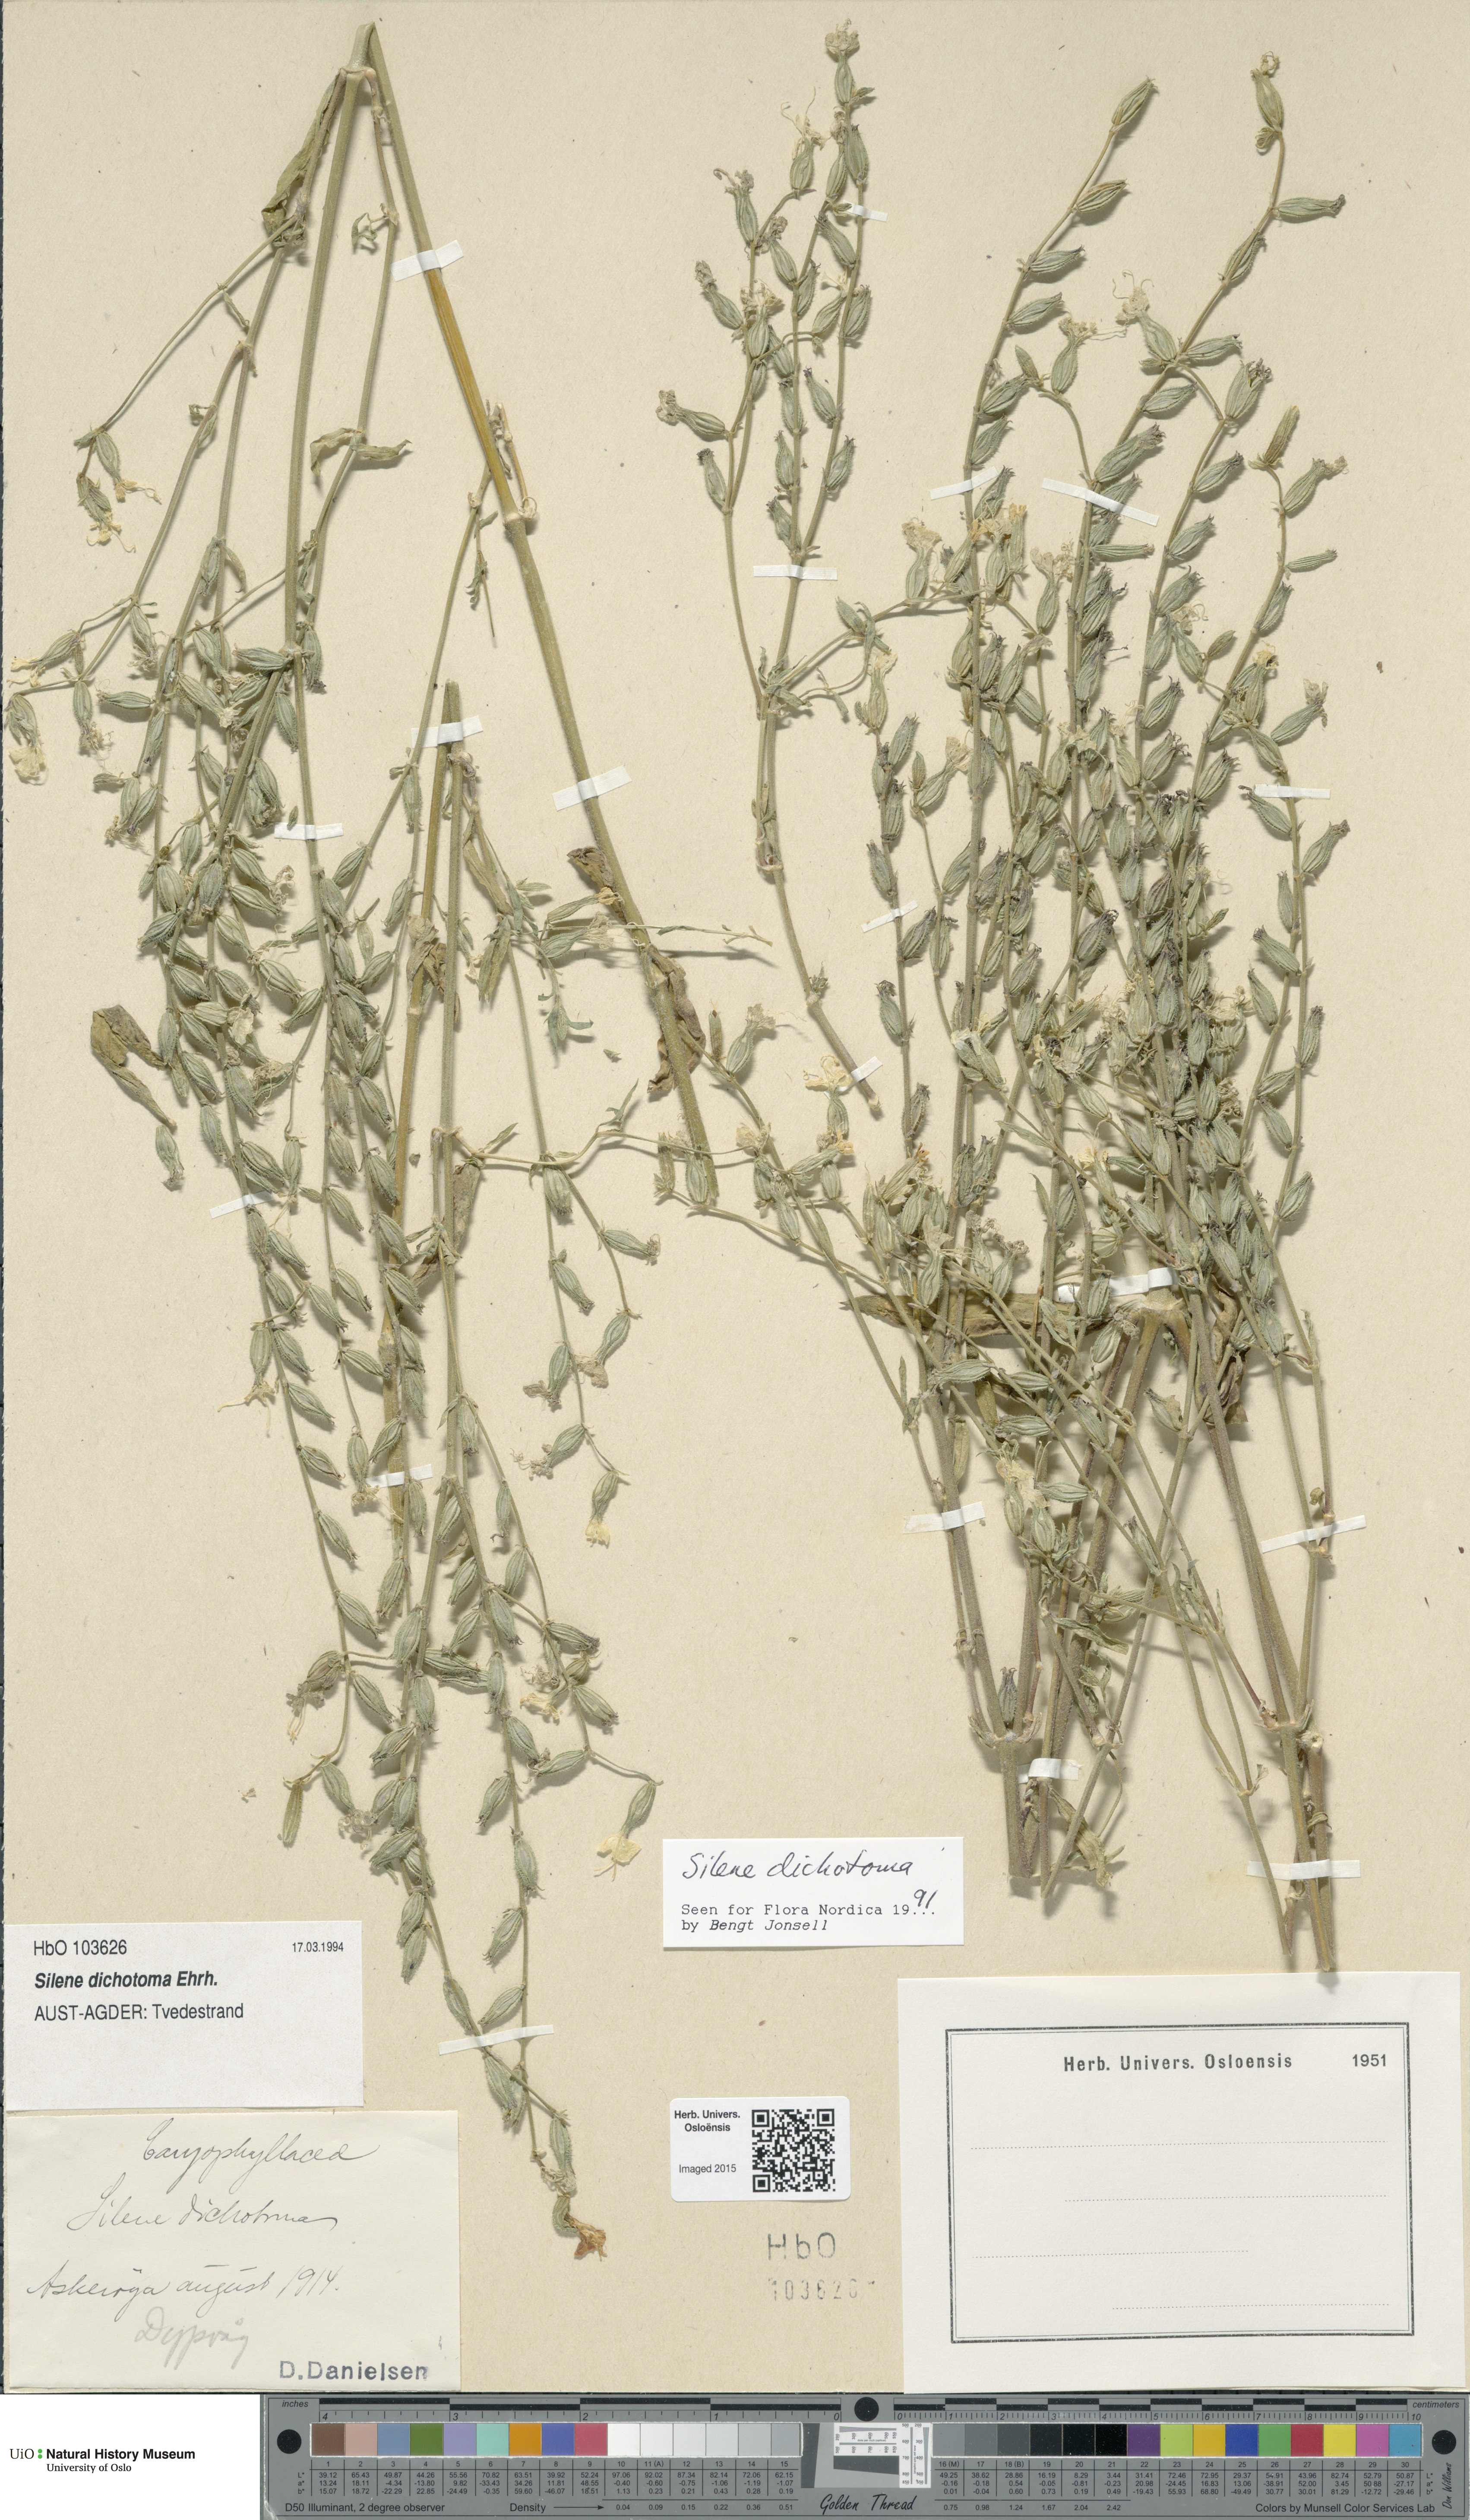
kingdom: Plantae
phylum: Tracheophyta
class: Magnoliopsida
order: Caryophyllales
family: Caryophyllaceae
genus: Silene
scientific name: Silene dichotoma
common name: Forked catchfly
